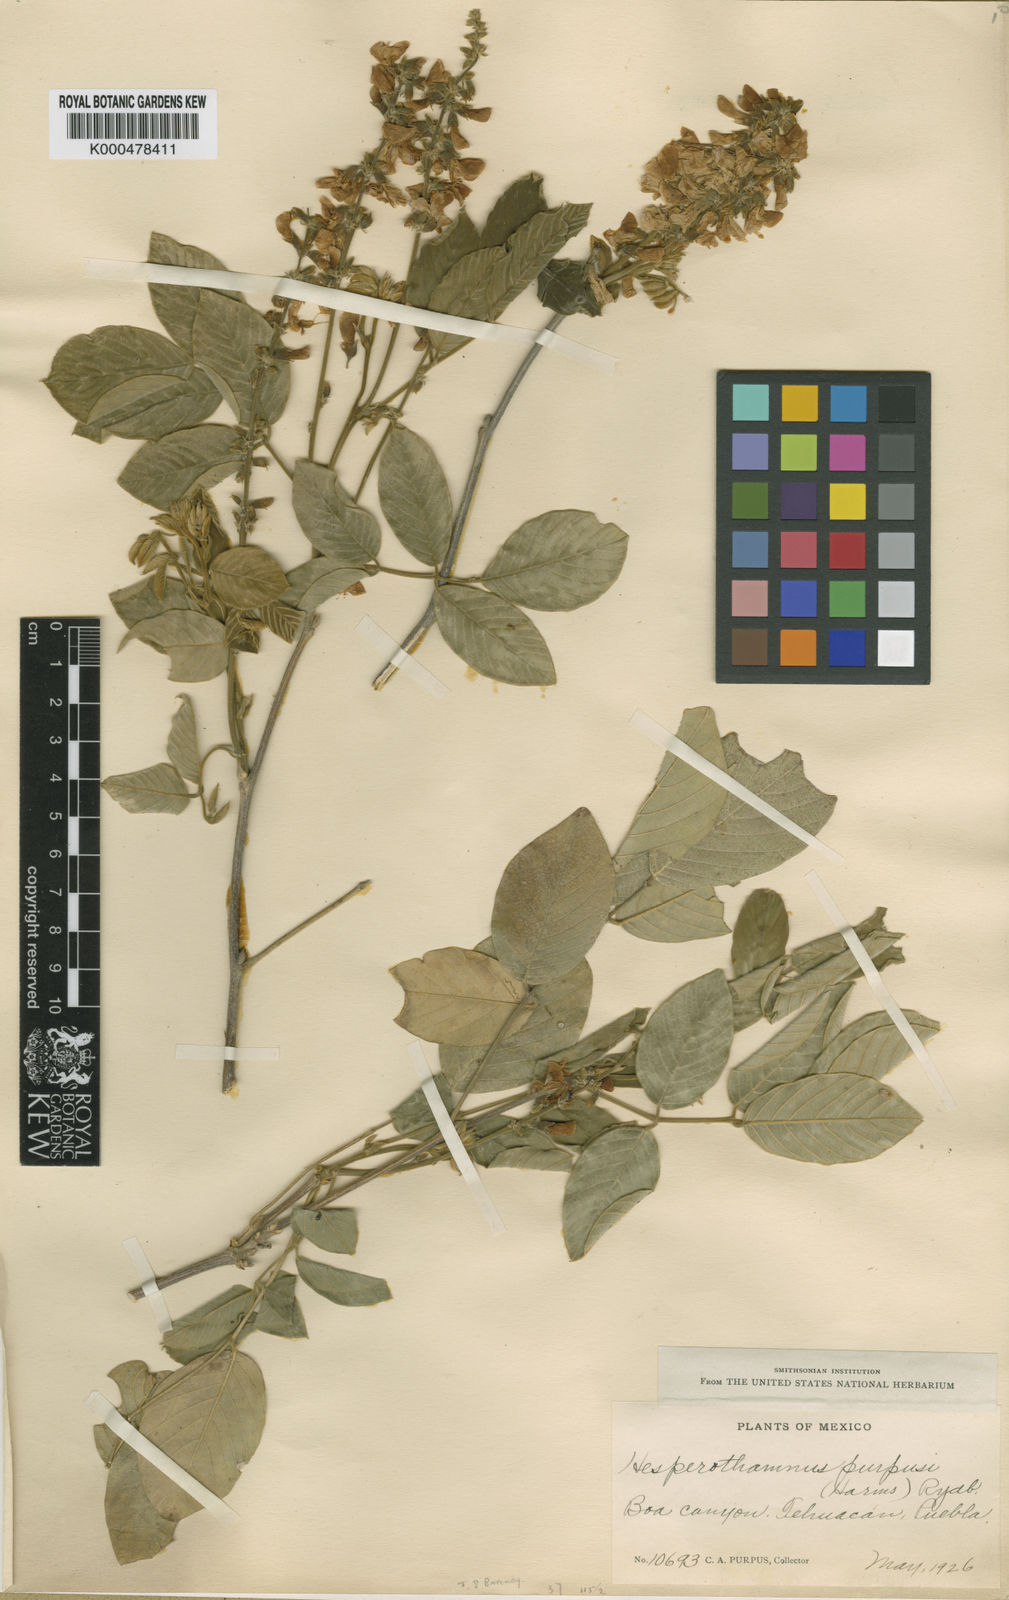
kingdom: Plantae
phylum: Tracheophyta
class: Magnoliopsida
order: Fabales
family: Fabaceae
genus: Hesperothamnus
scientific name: Hesperothamnus purpusii
